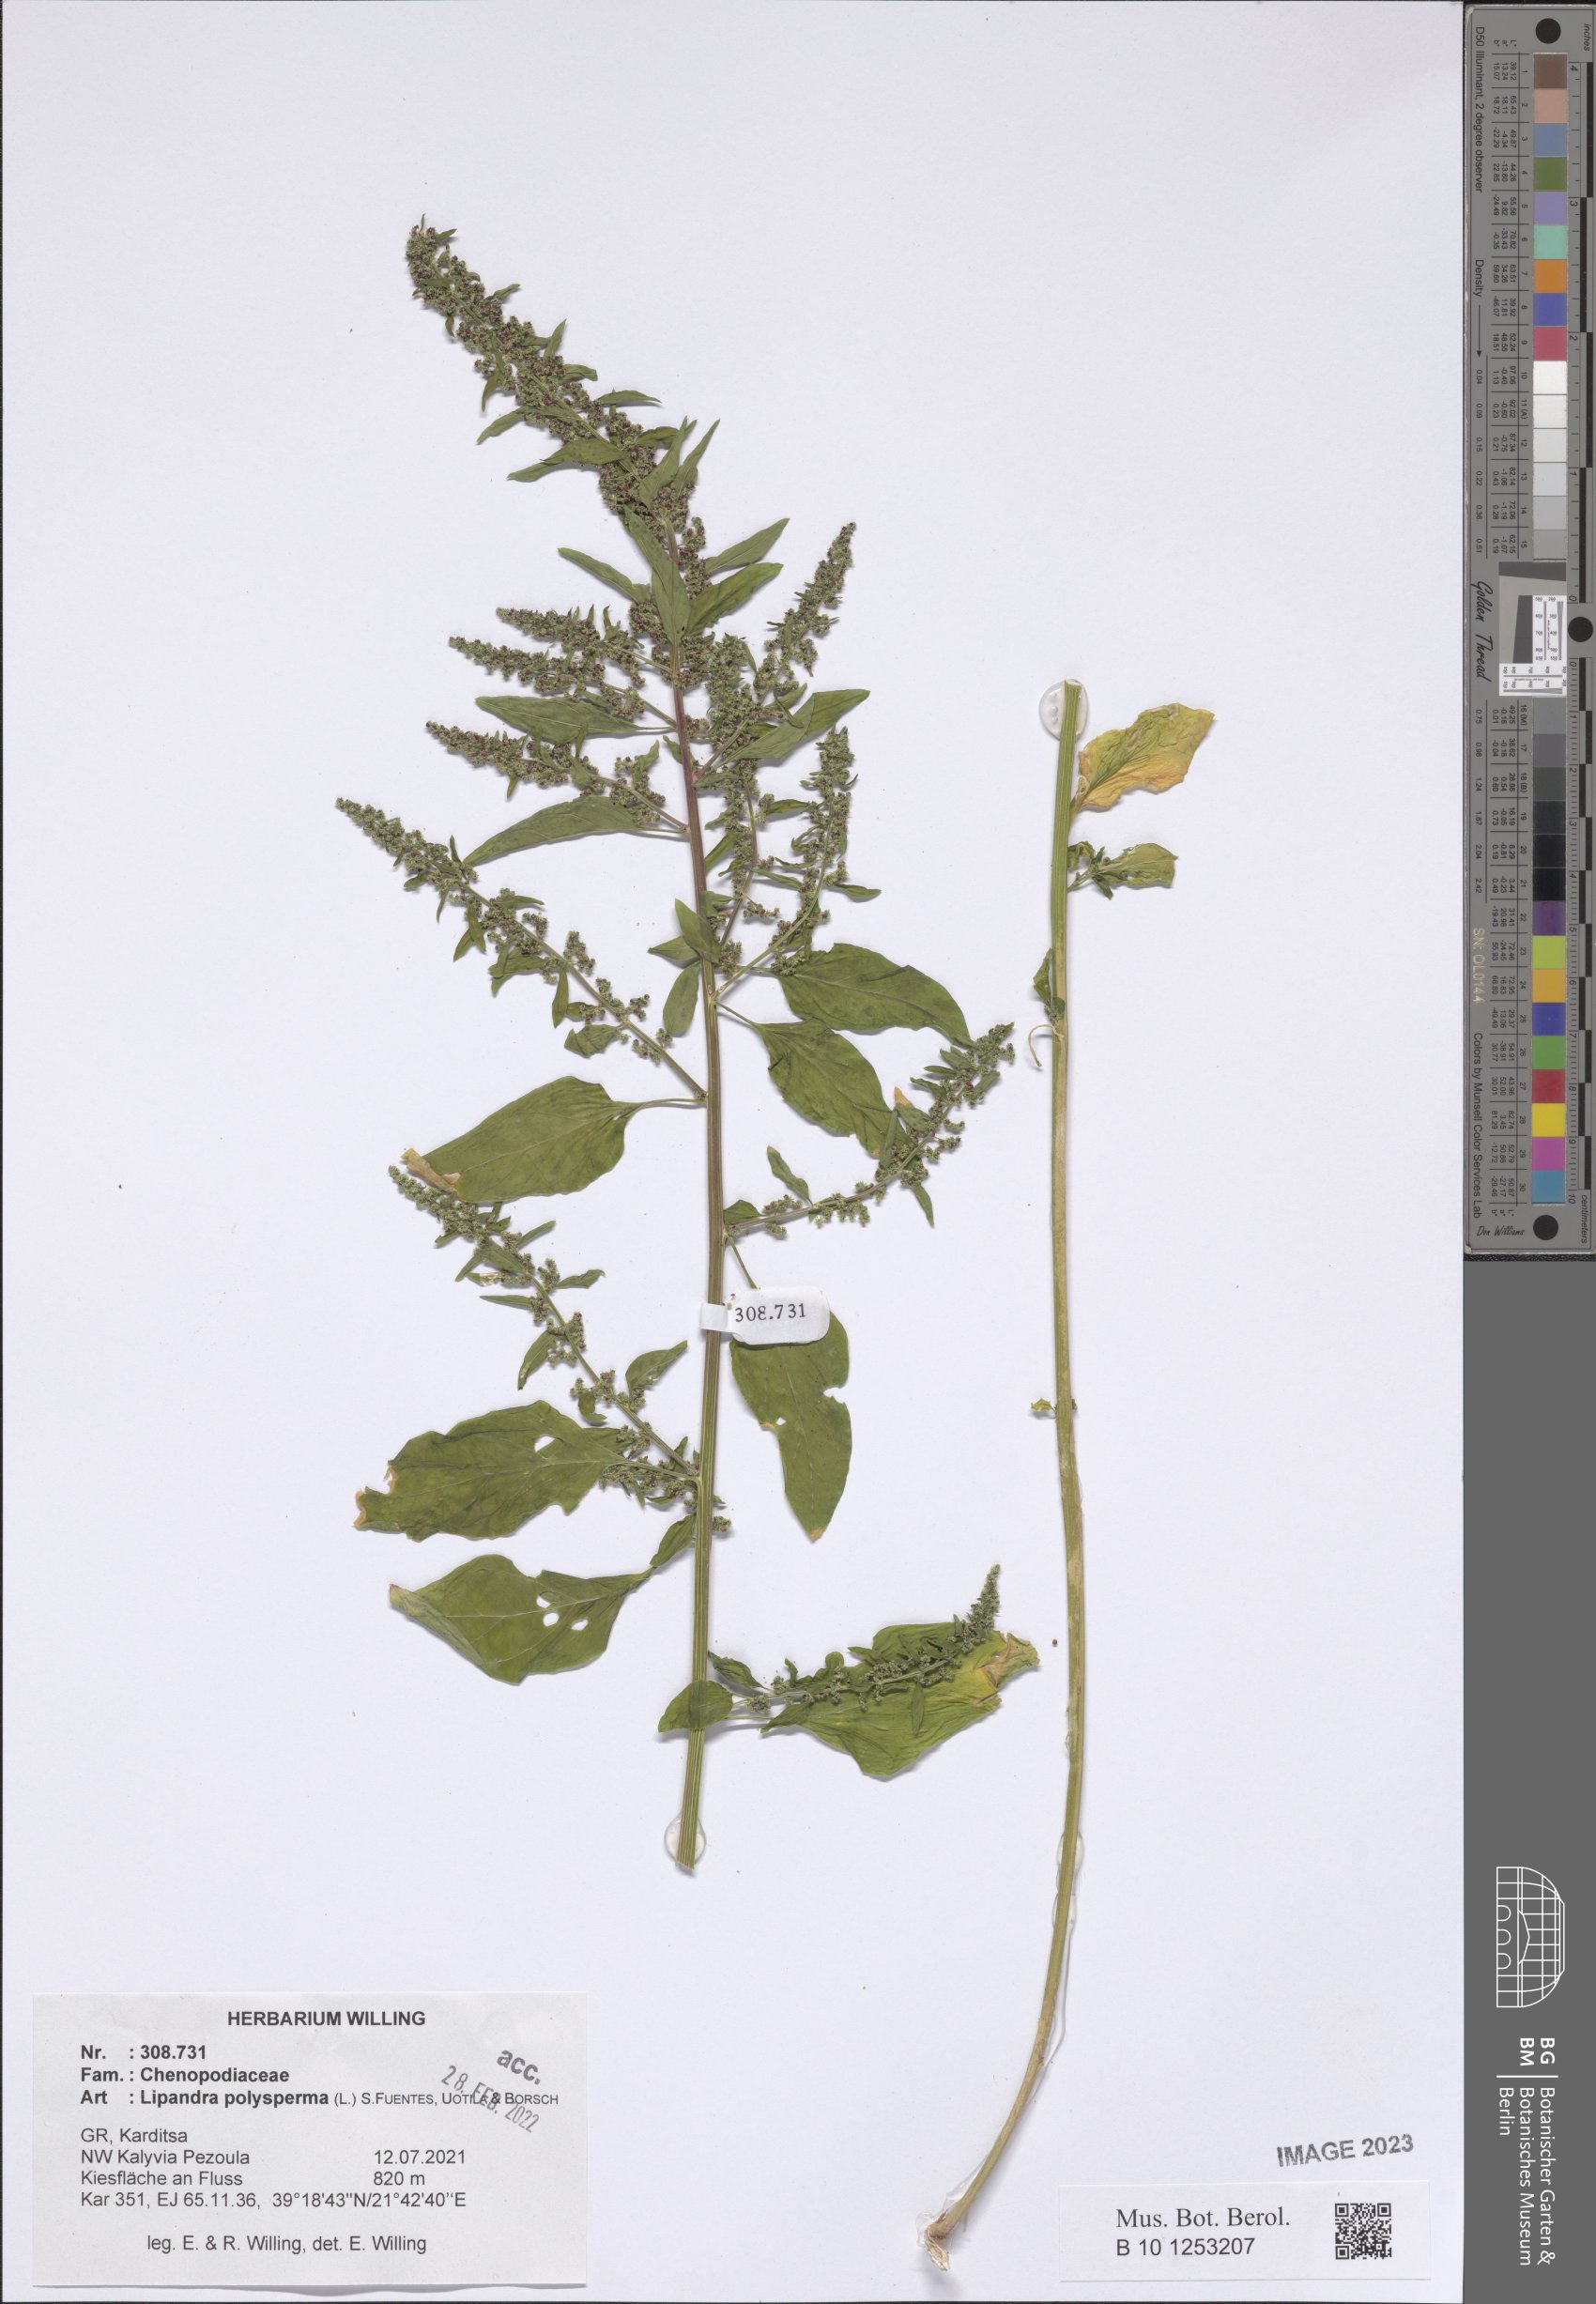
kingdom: Plantae
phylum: Tracheophyta
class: Magnoliopsida
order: Caryophyllales
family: Amaranthaceae
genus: Lipandra
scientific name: Lipandra polysperma
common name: Many-seed goosefoot
